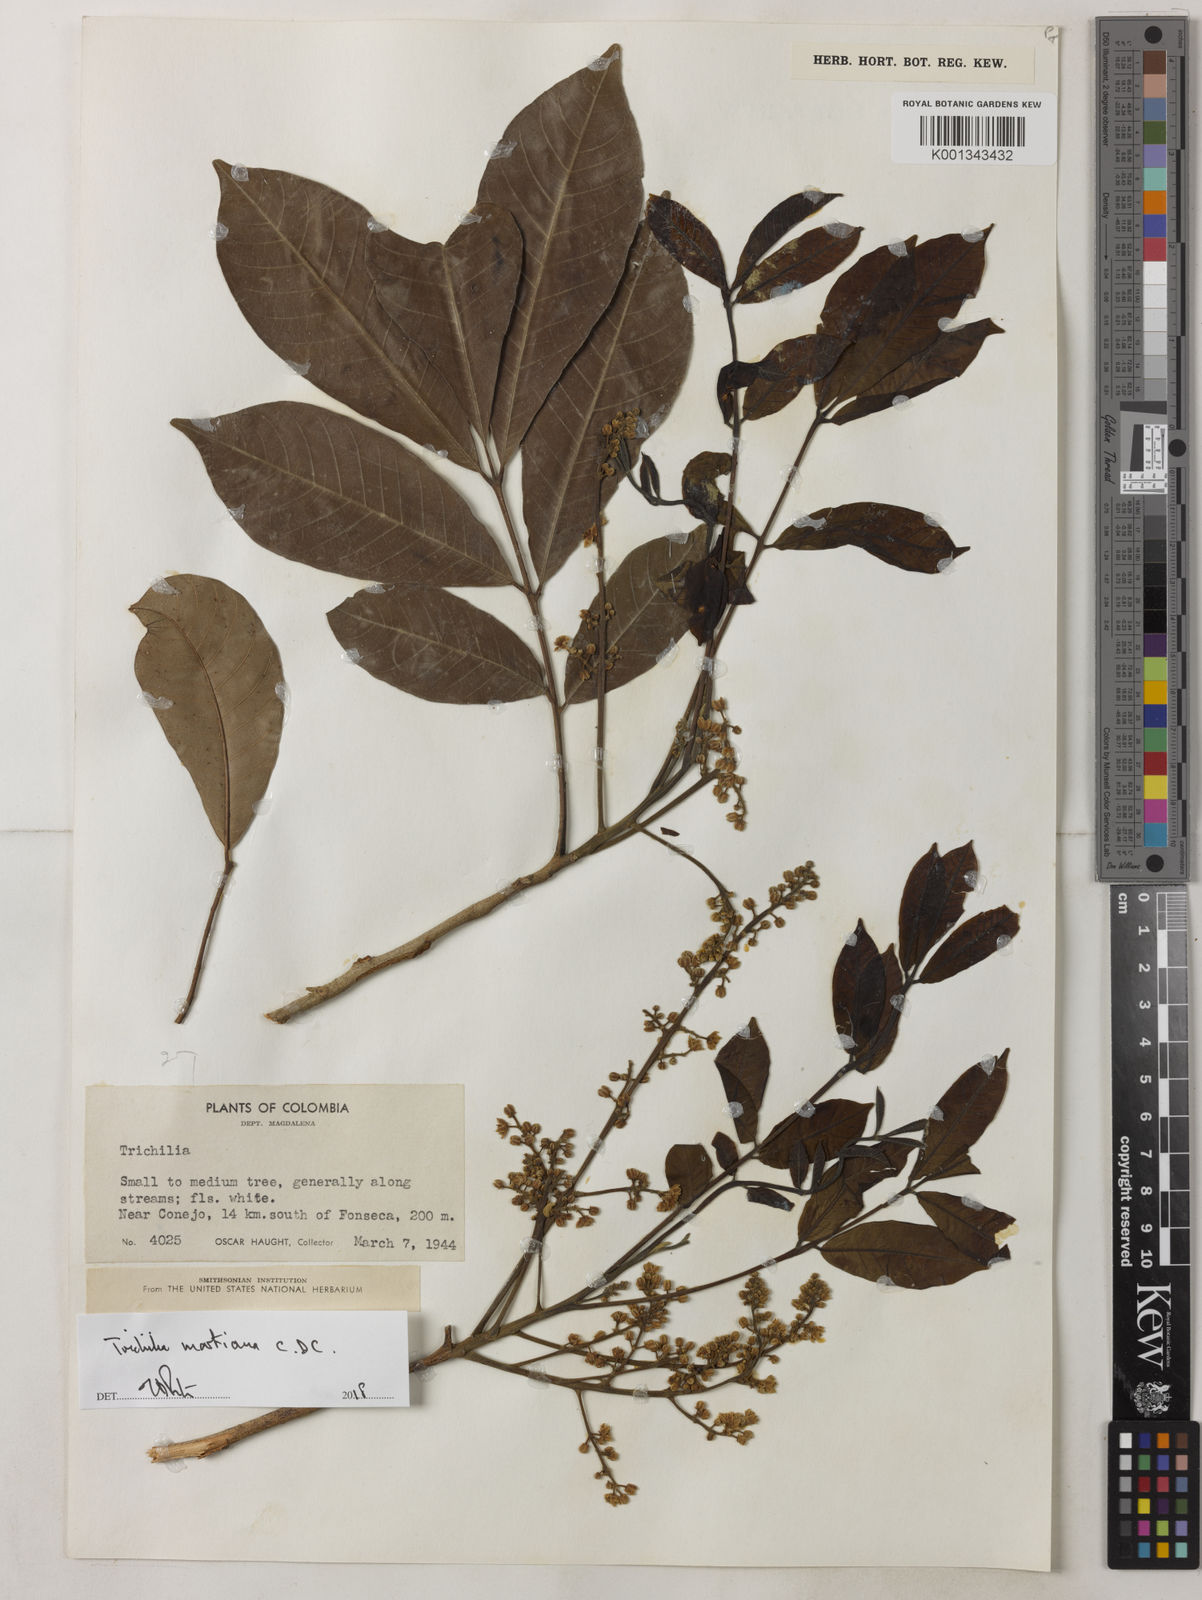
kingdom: Plantae
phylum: Tracheophyta
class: Magnoliopsida
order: Sapindales
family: Meliaceae
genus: Trichilia
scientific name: Trichilia martiana
